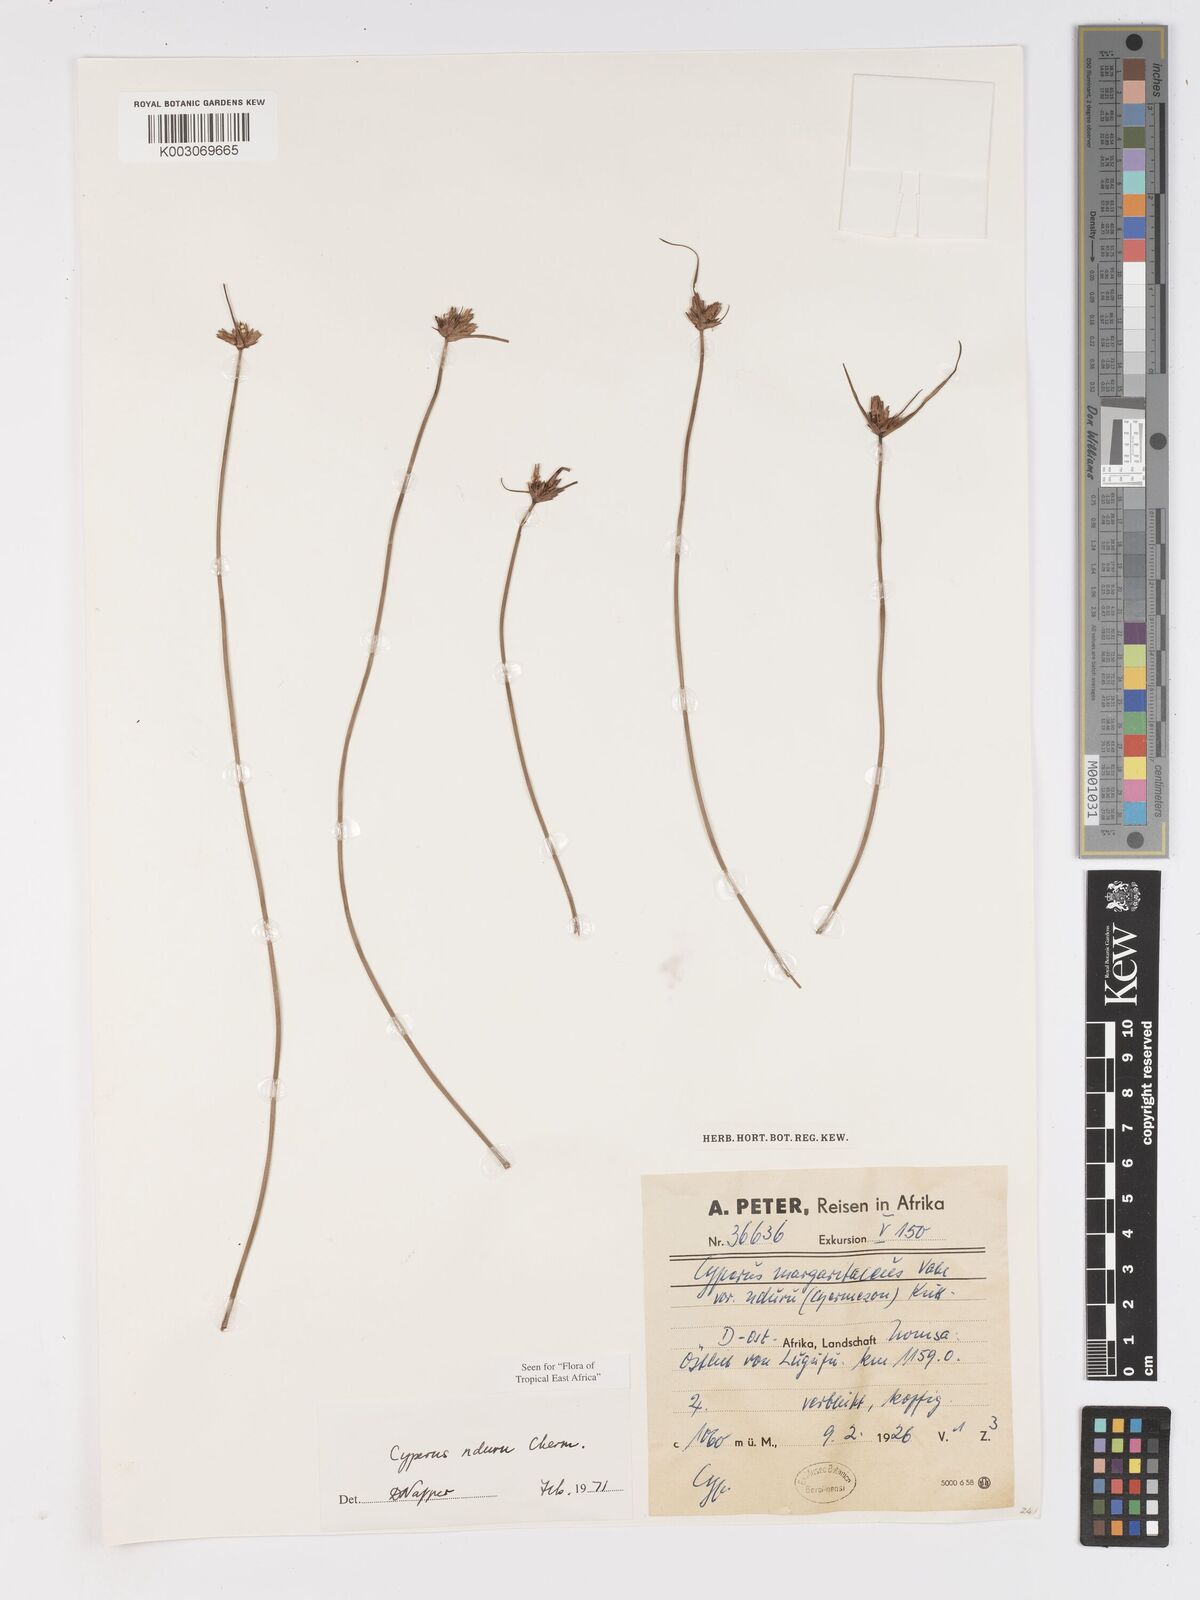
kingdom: Plantae
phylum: Tracheophyta
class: Liliopsida
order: Poales
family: Cyperaceae
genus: Cyperus
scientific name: Cyperus nduru
